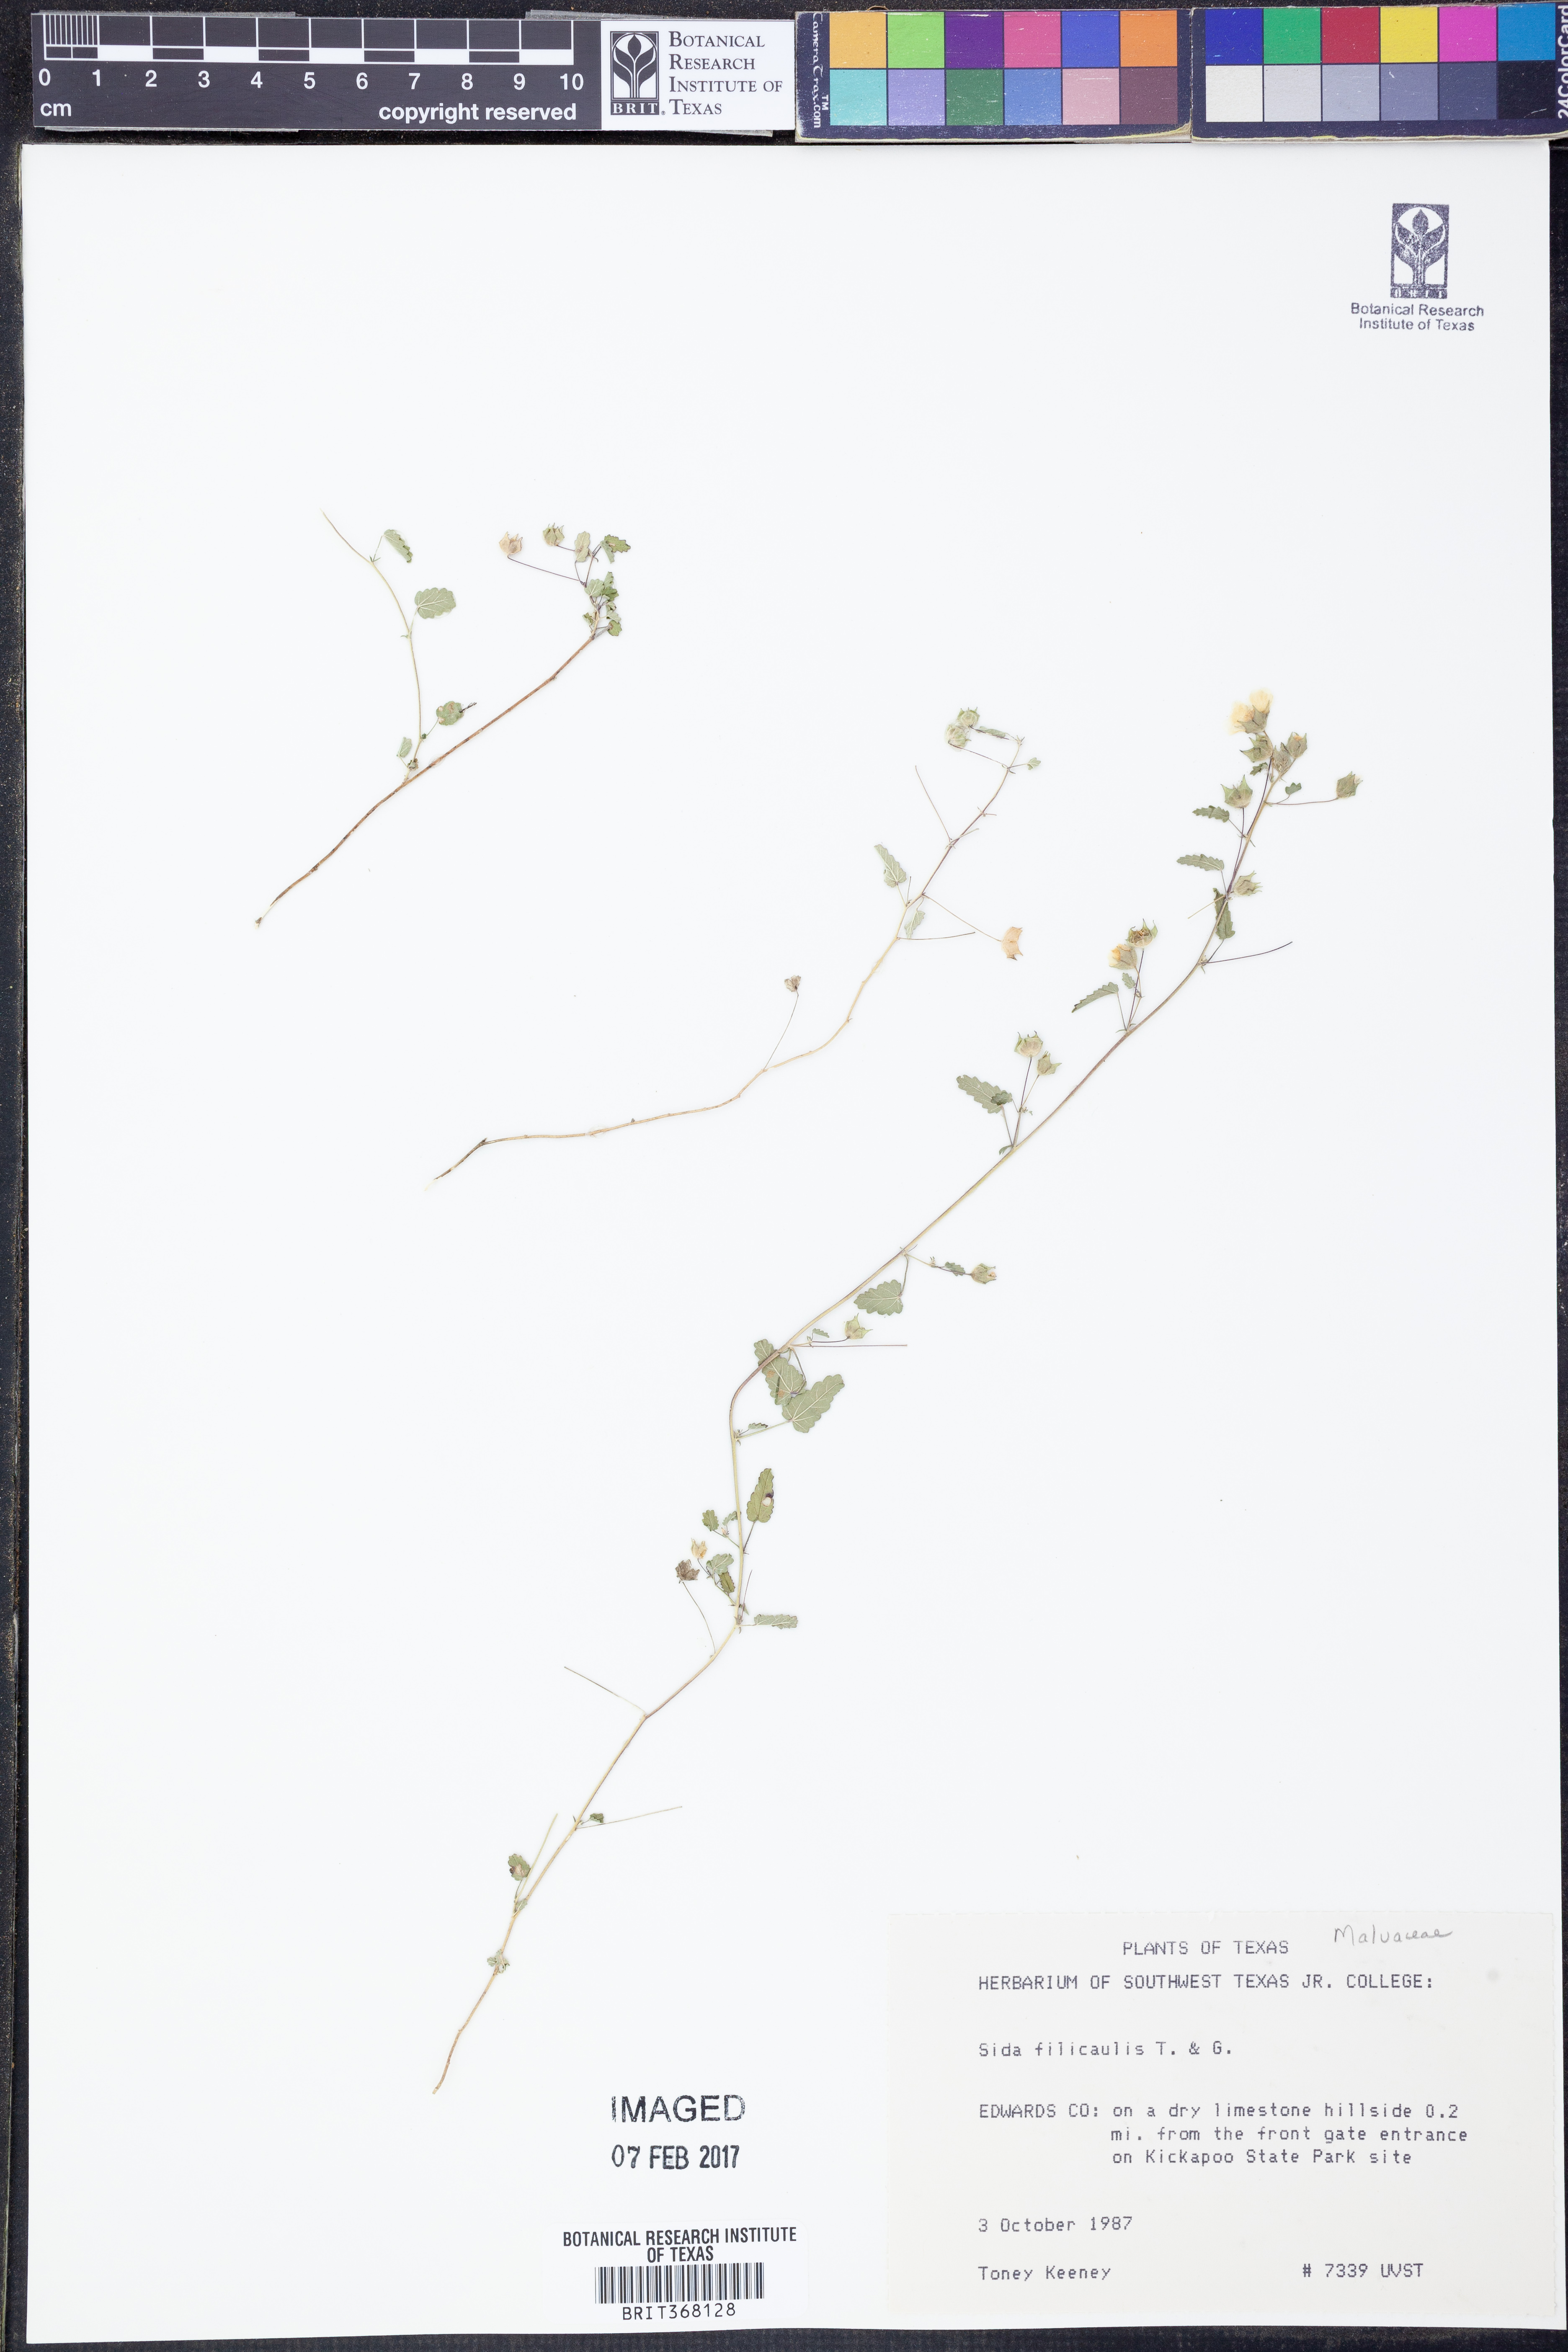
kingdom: Plantae
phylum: Tracheophyta
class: Magnoliopsida
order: Malvales
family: Malvaceae
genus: Sida
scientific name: Sida abutilifolia
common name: Spreading fanpetals
